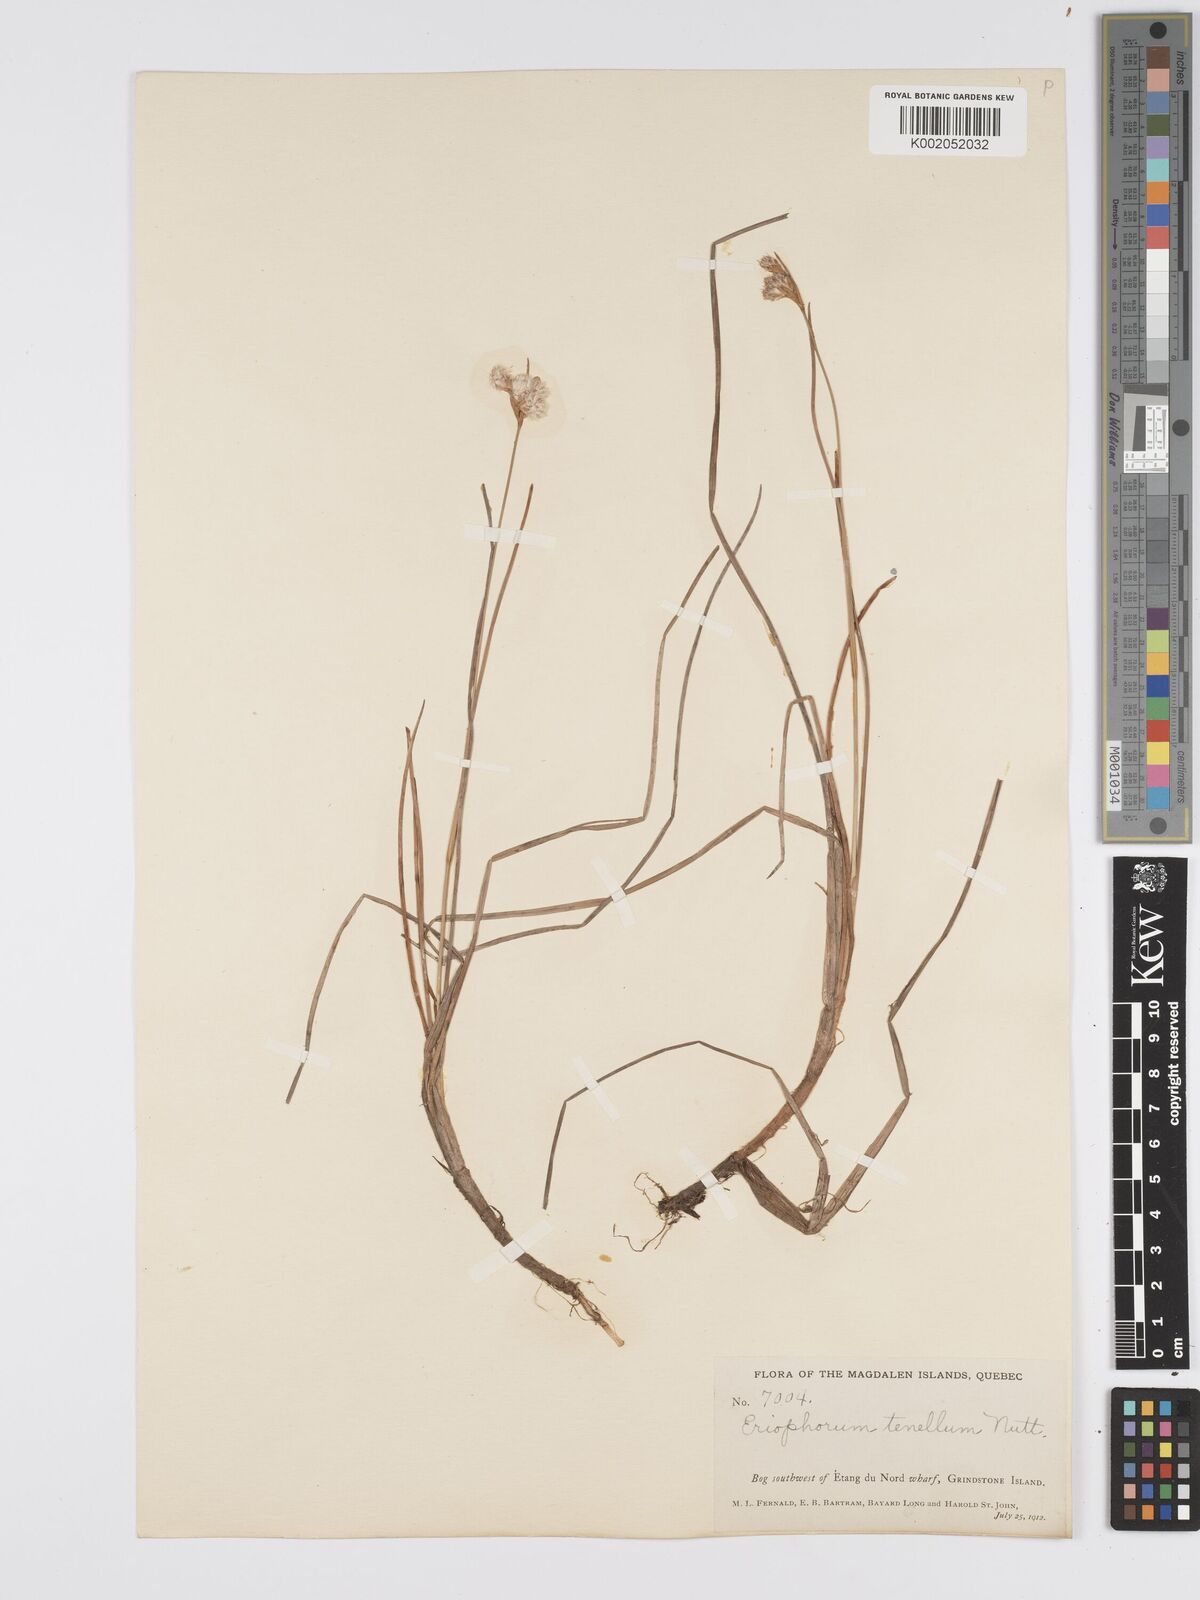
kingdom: Plantae
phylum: Tracheophyta
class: Liliopsida
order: Poales
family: Cyperaceae
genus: Eriophorum
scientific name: Eriophorum tenellum
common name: Few-nerved cottongrass
